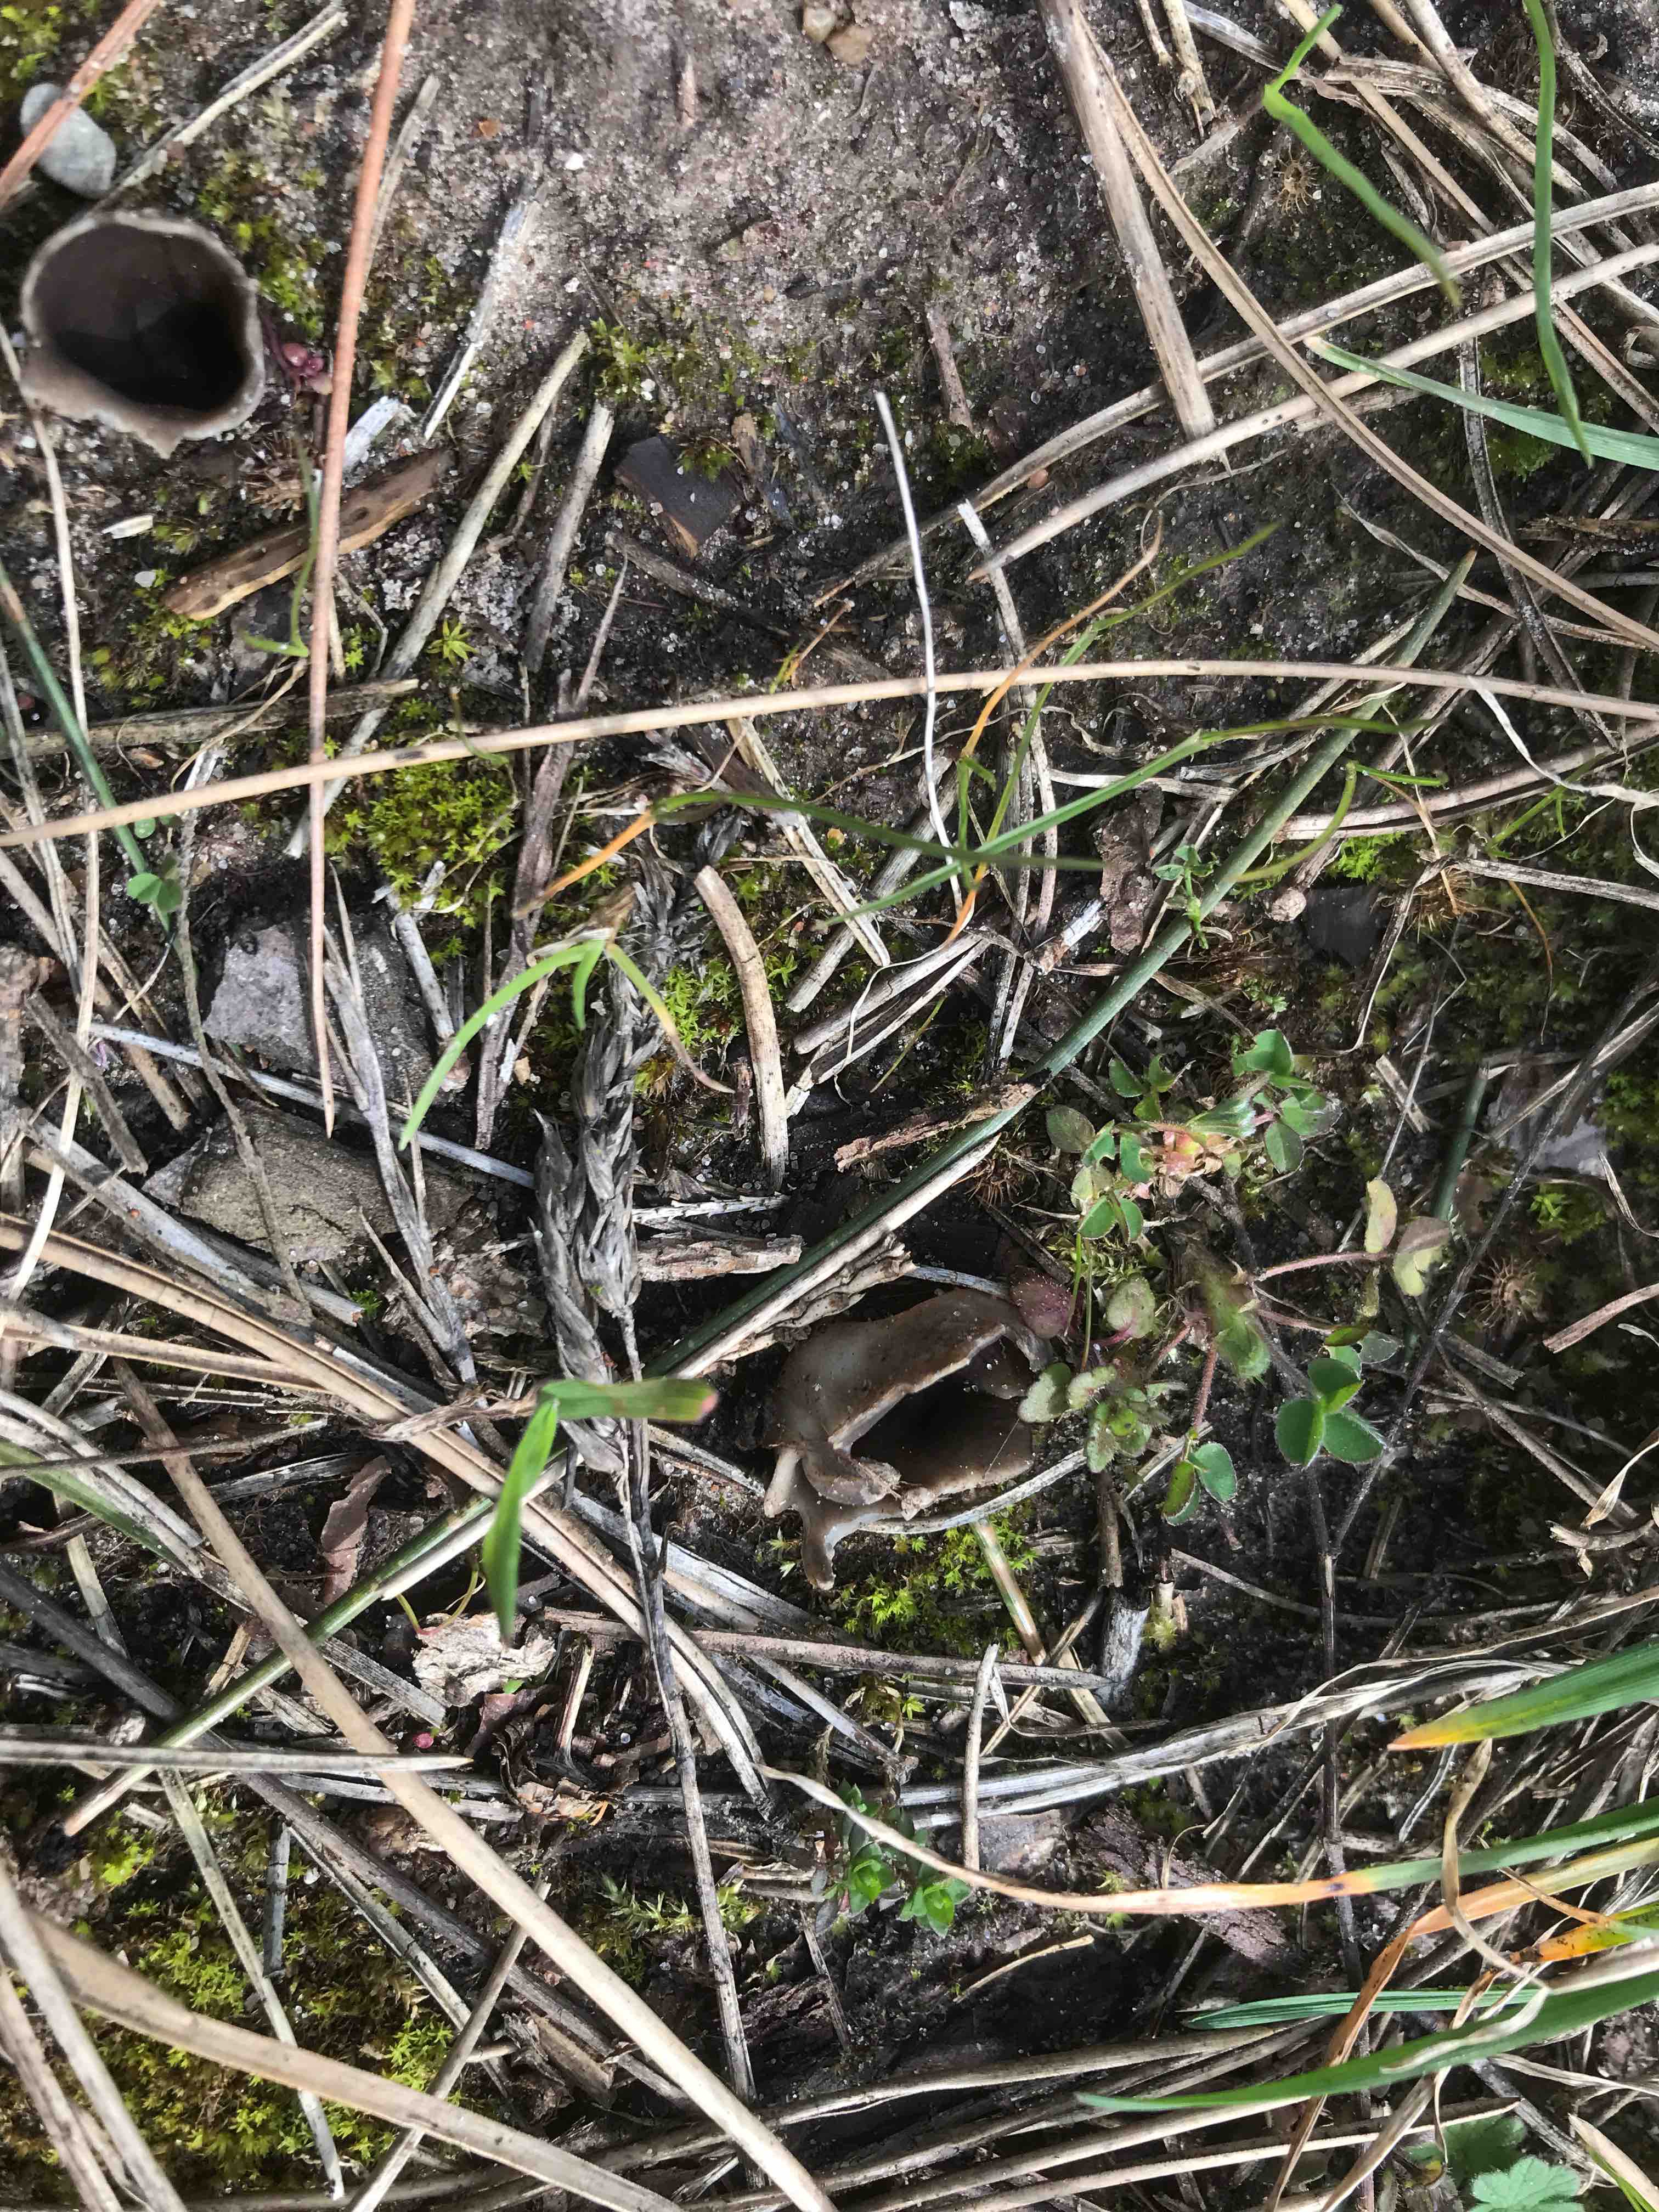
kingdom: Fungi
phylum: Ascomycota
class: Pezizomycetes
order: Pezizales
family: Helvellaceae
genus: Dissingia
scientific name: Dissingia leucomelaena
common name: sorthvid foldhat
